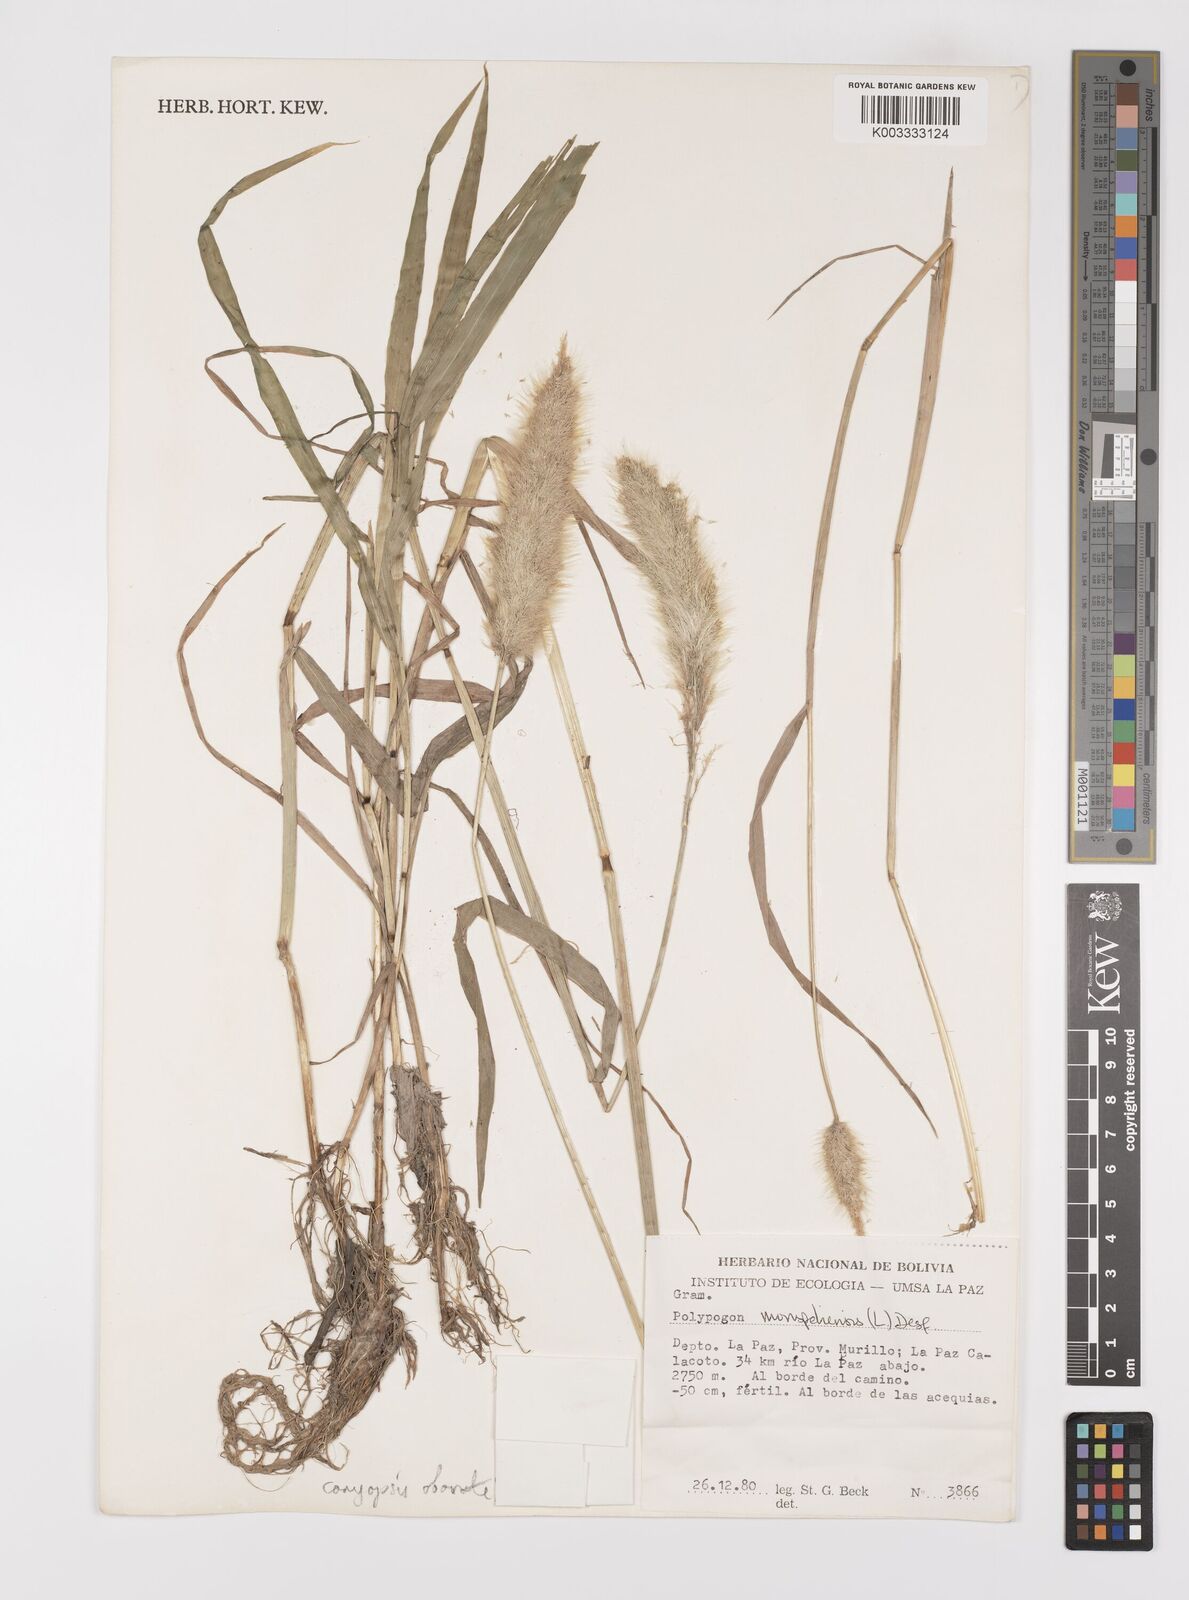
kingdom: Plantae
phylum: Tracheophyta
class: Liliopsida
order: Poales
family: Poaceae
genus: Polypogon
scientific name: Polypogon monspeliensis
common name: Annual rabbitsfoot grass
